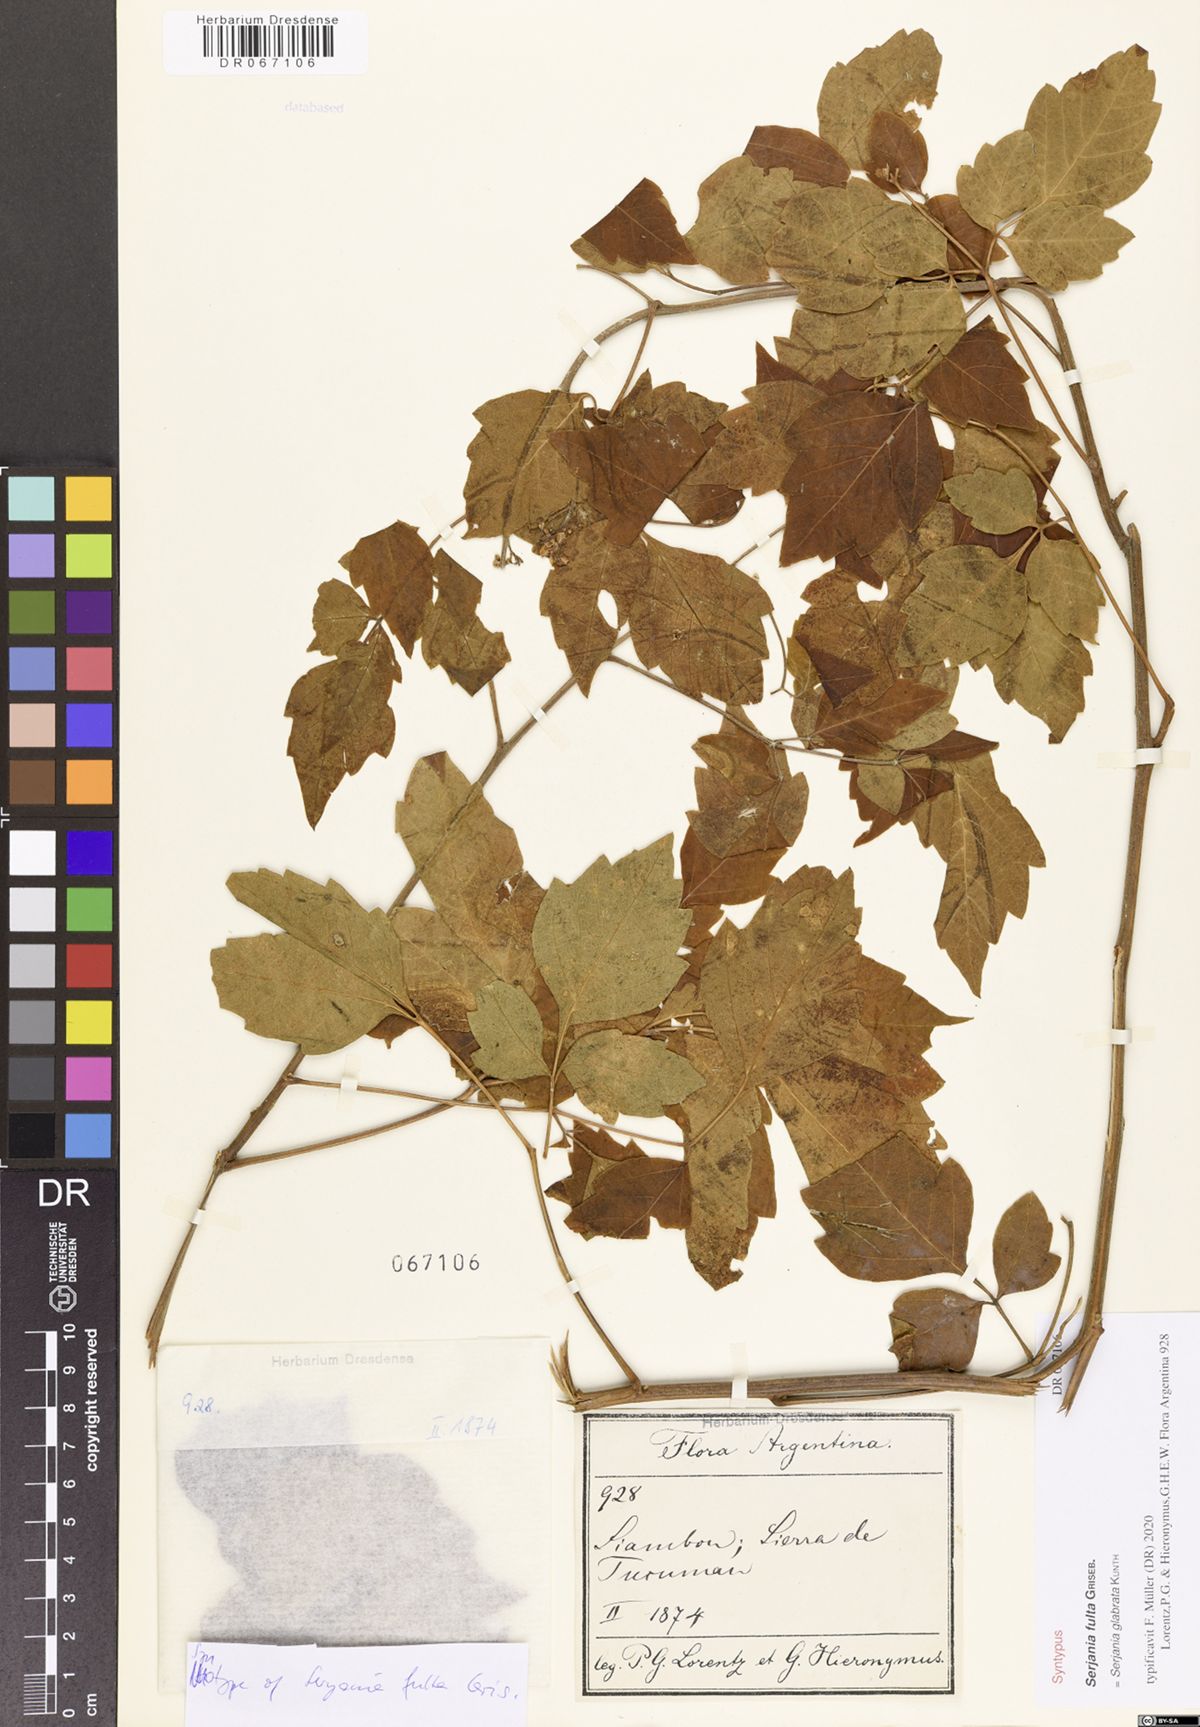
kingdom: Plantae
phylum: Tracheophyta
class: Magnoliopsida
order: Sapindales
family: Sapindaceae
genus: Serjania
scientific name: Serjania glabrata
